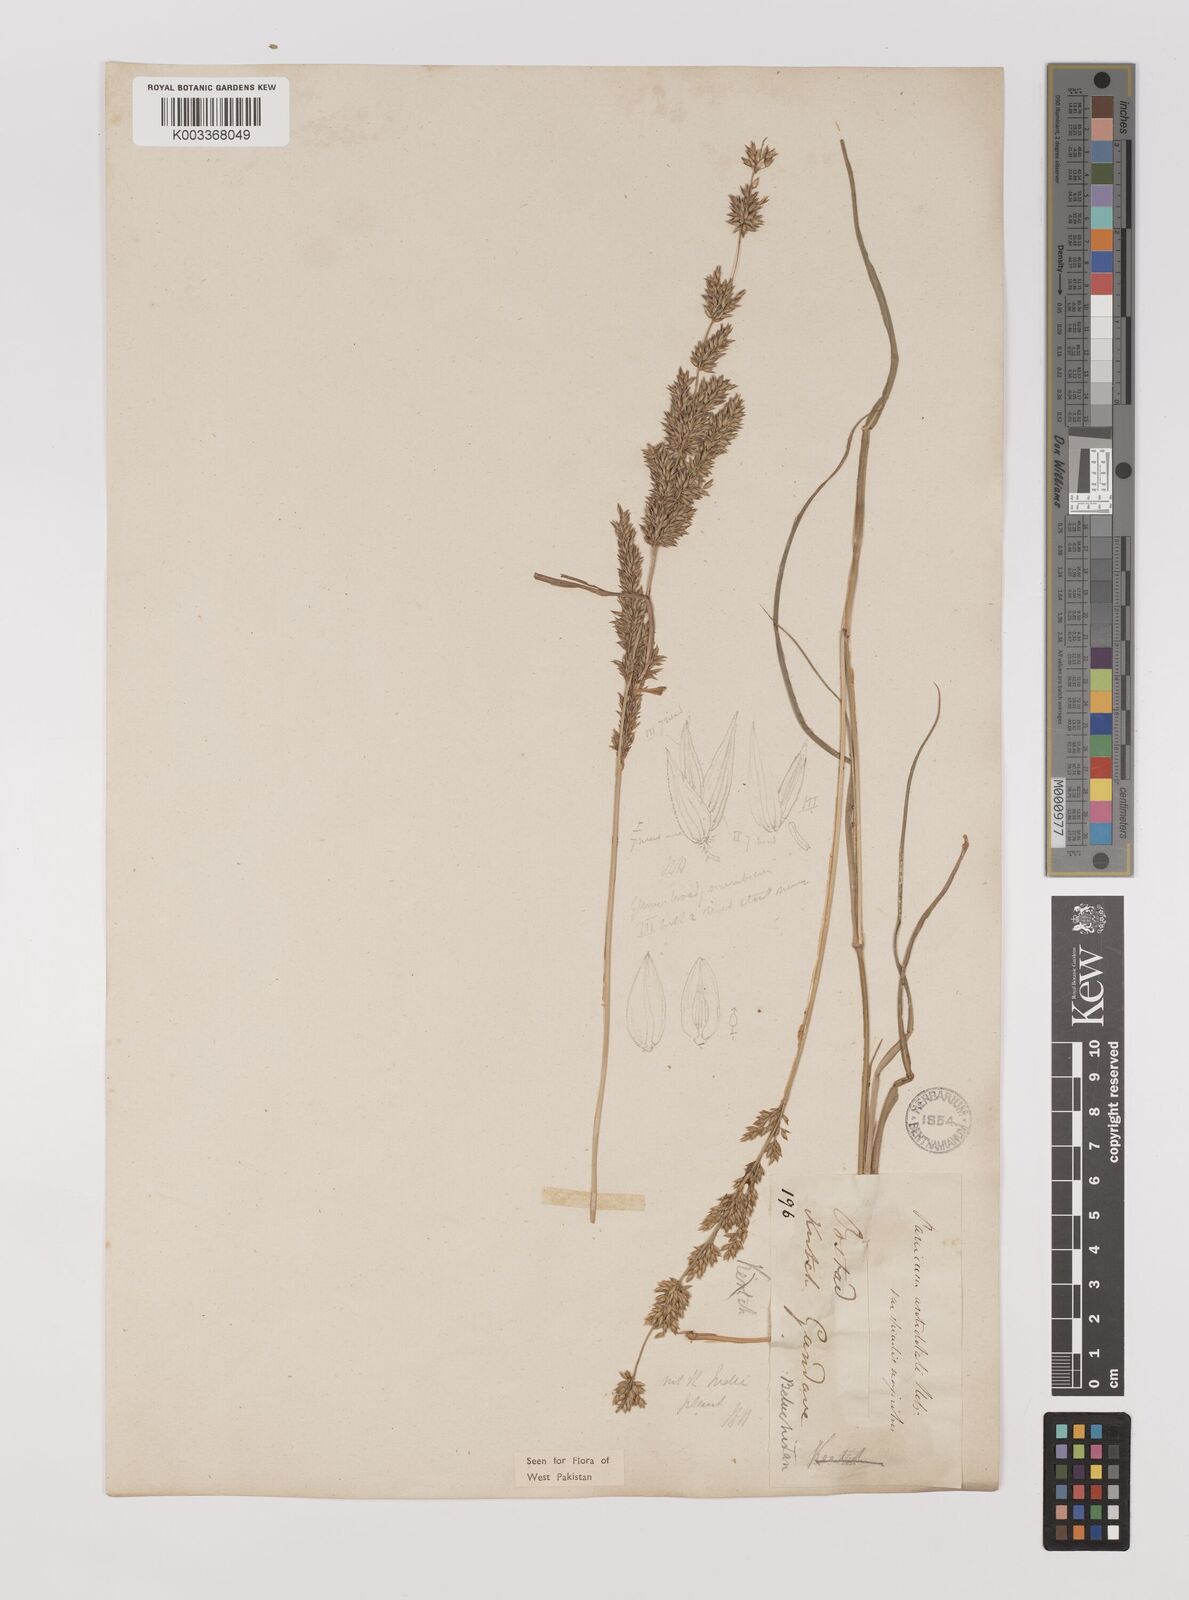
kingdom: Plantae
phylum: Tracheophyta
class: Liliopsida
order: Poales
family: Poaceae
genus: Panicum
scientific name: Panicum antidotale
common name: Blue panicum
